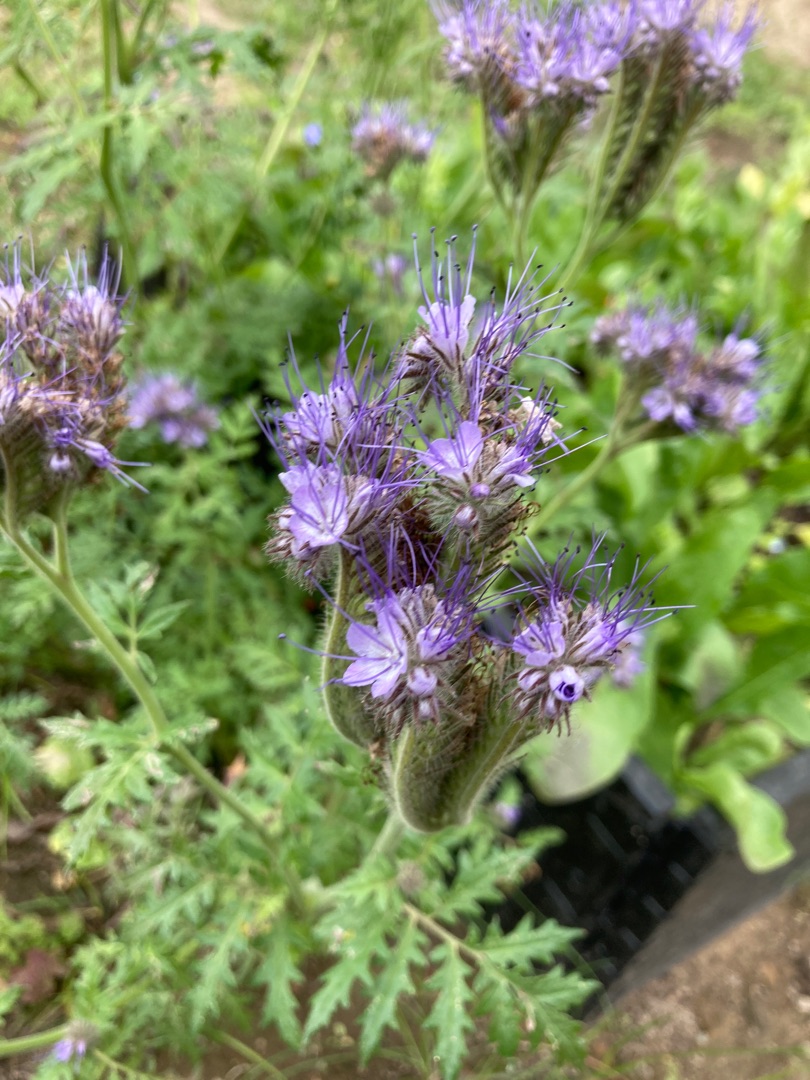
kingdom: Plantae
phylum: Tracheophyta
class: Magnoliopsida
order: Boraginales
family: Hydrophyllaceae
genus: Phacelia
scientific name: Phacelia tanacetifolia
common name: Honningurt
